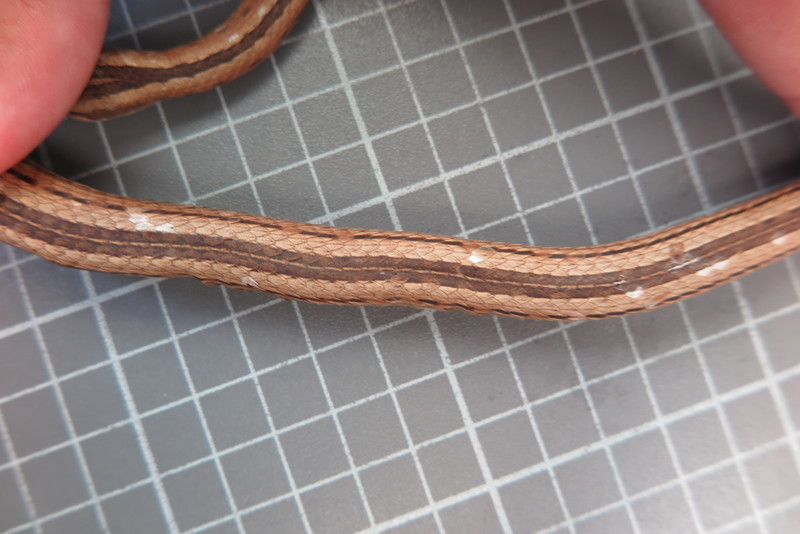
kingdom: Animalia
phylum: Chordata
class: Squamata
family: Psammophiidae
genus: Mimophis
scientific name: Mimophis
